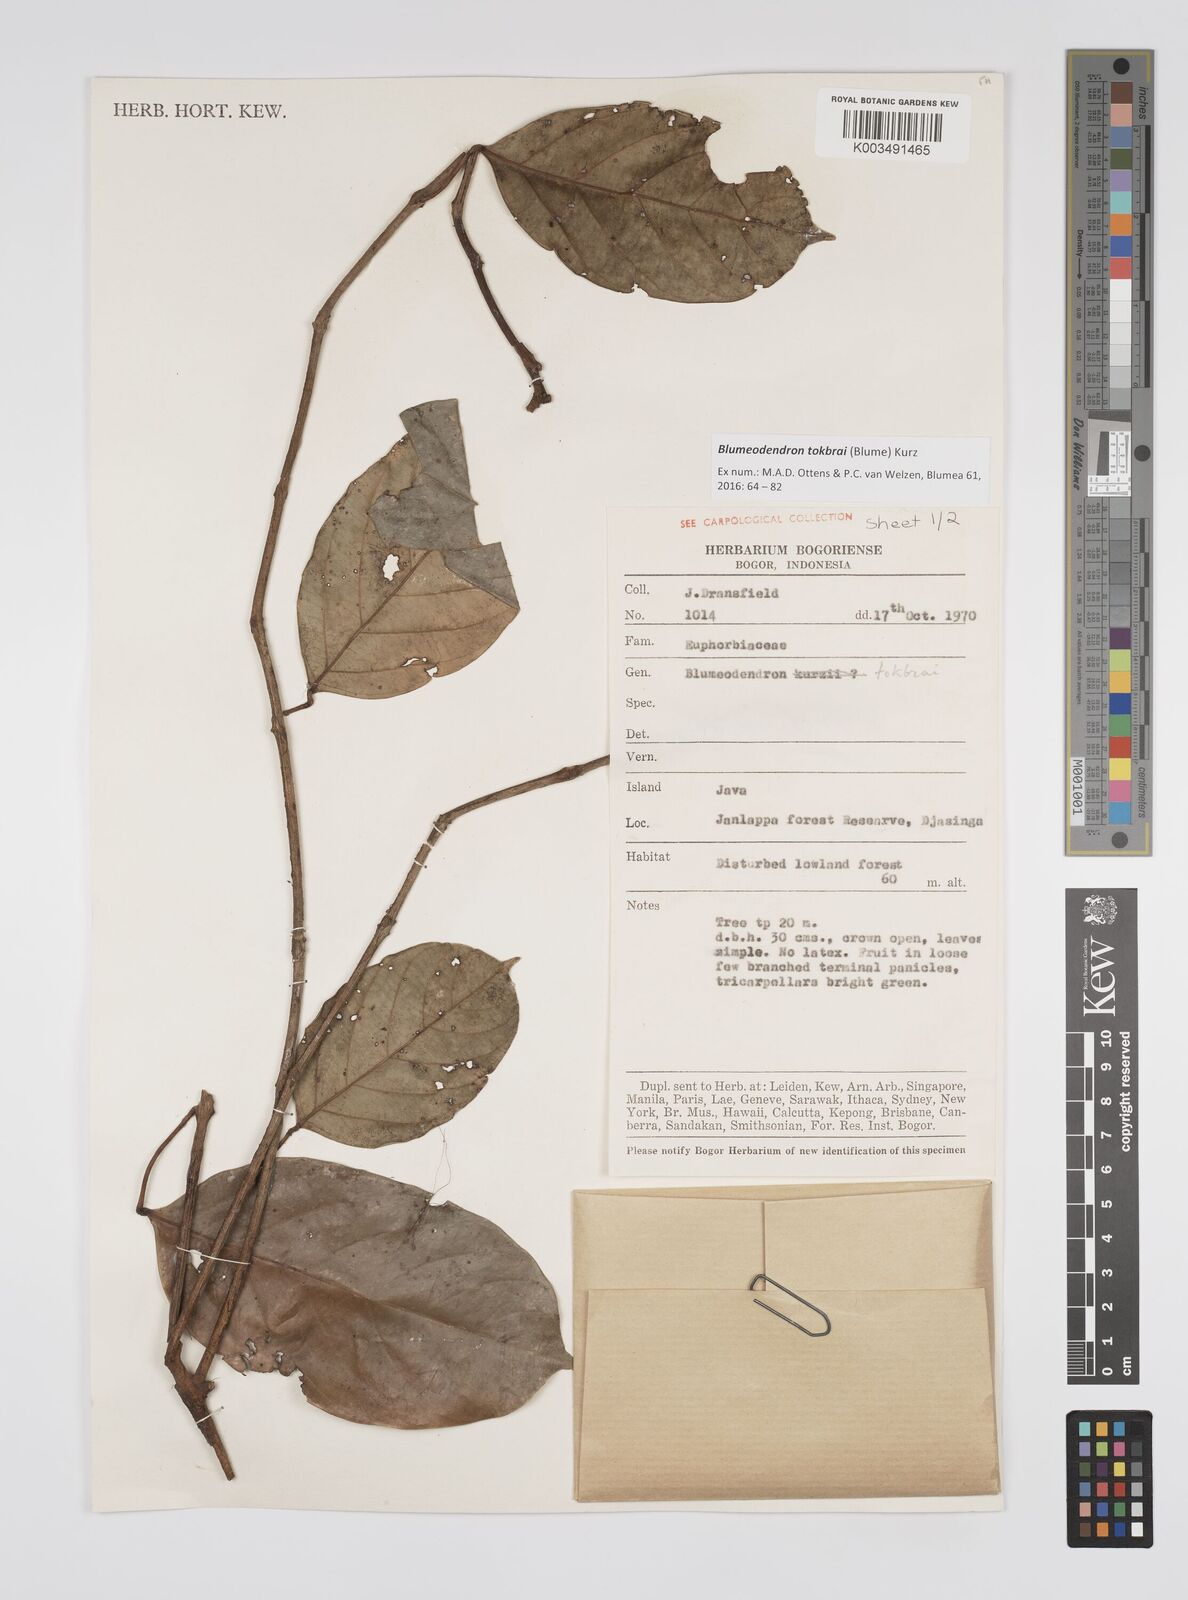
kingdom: Plantae
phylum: Tracheophyta
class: Magnoliopsida
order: Malpighiales
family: Euphorbiaceae
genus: Blumeodendron
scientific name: Blumeodendron tokbrai
